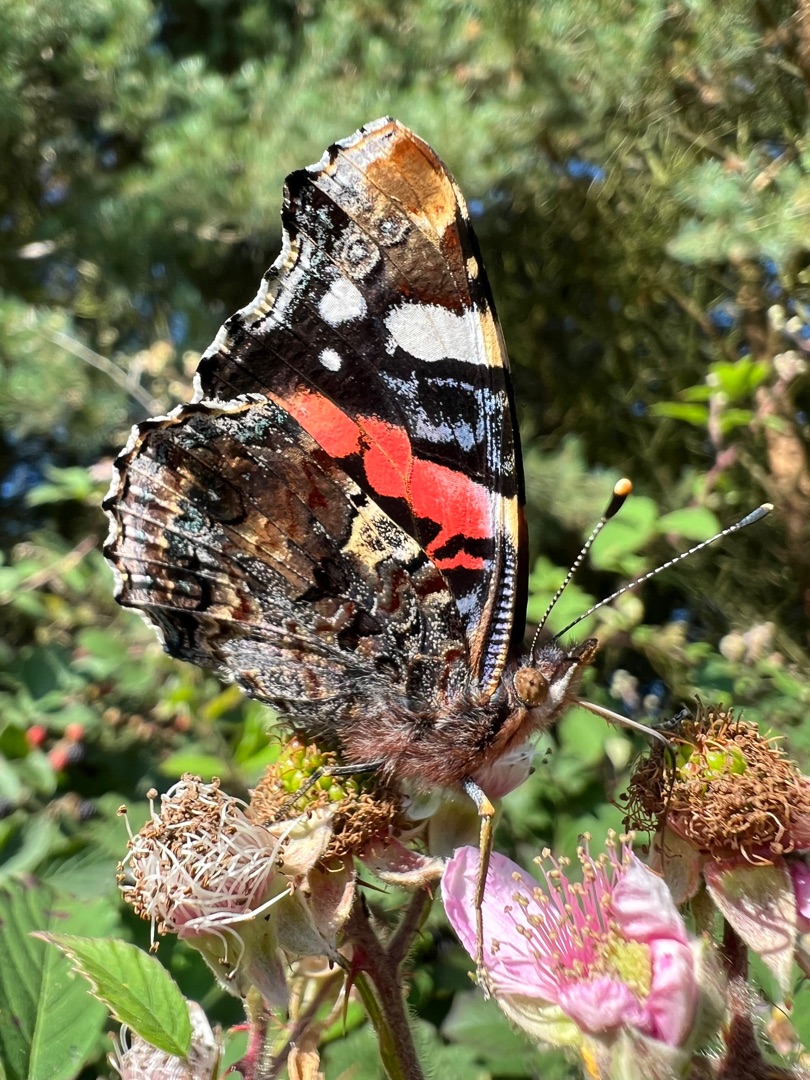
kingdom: Animalia
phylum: Arthropoda
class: Insecta
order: Lepidoptera
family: Nymphalidae
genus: Vanessa
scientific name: Vanessa atalanta
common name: Admiral
